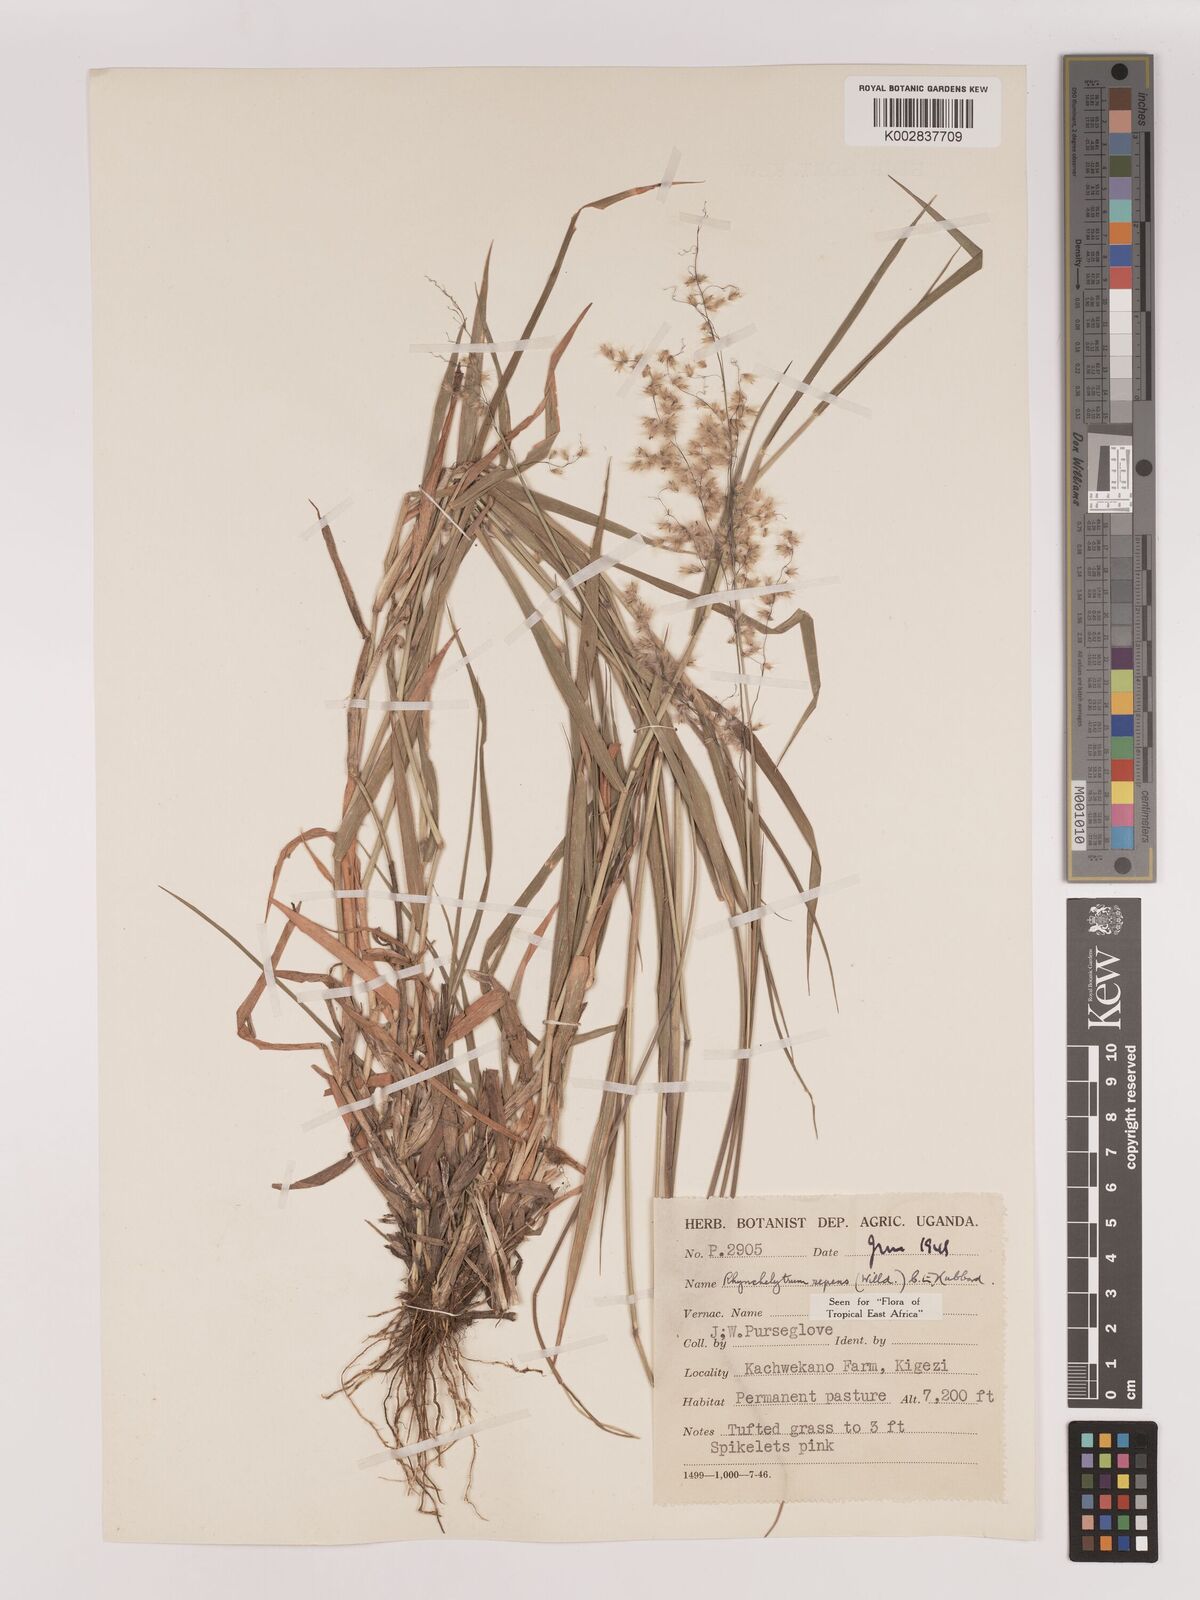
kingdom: Plantae
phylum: Tracheophyta
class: Liliopsida
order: Poales
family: Poaceae
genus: Melinis
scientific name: Melinis repens
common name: Rose natal grass
